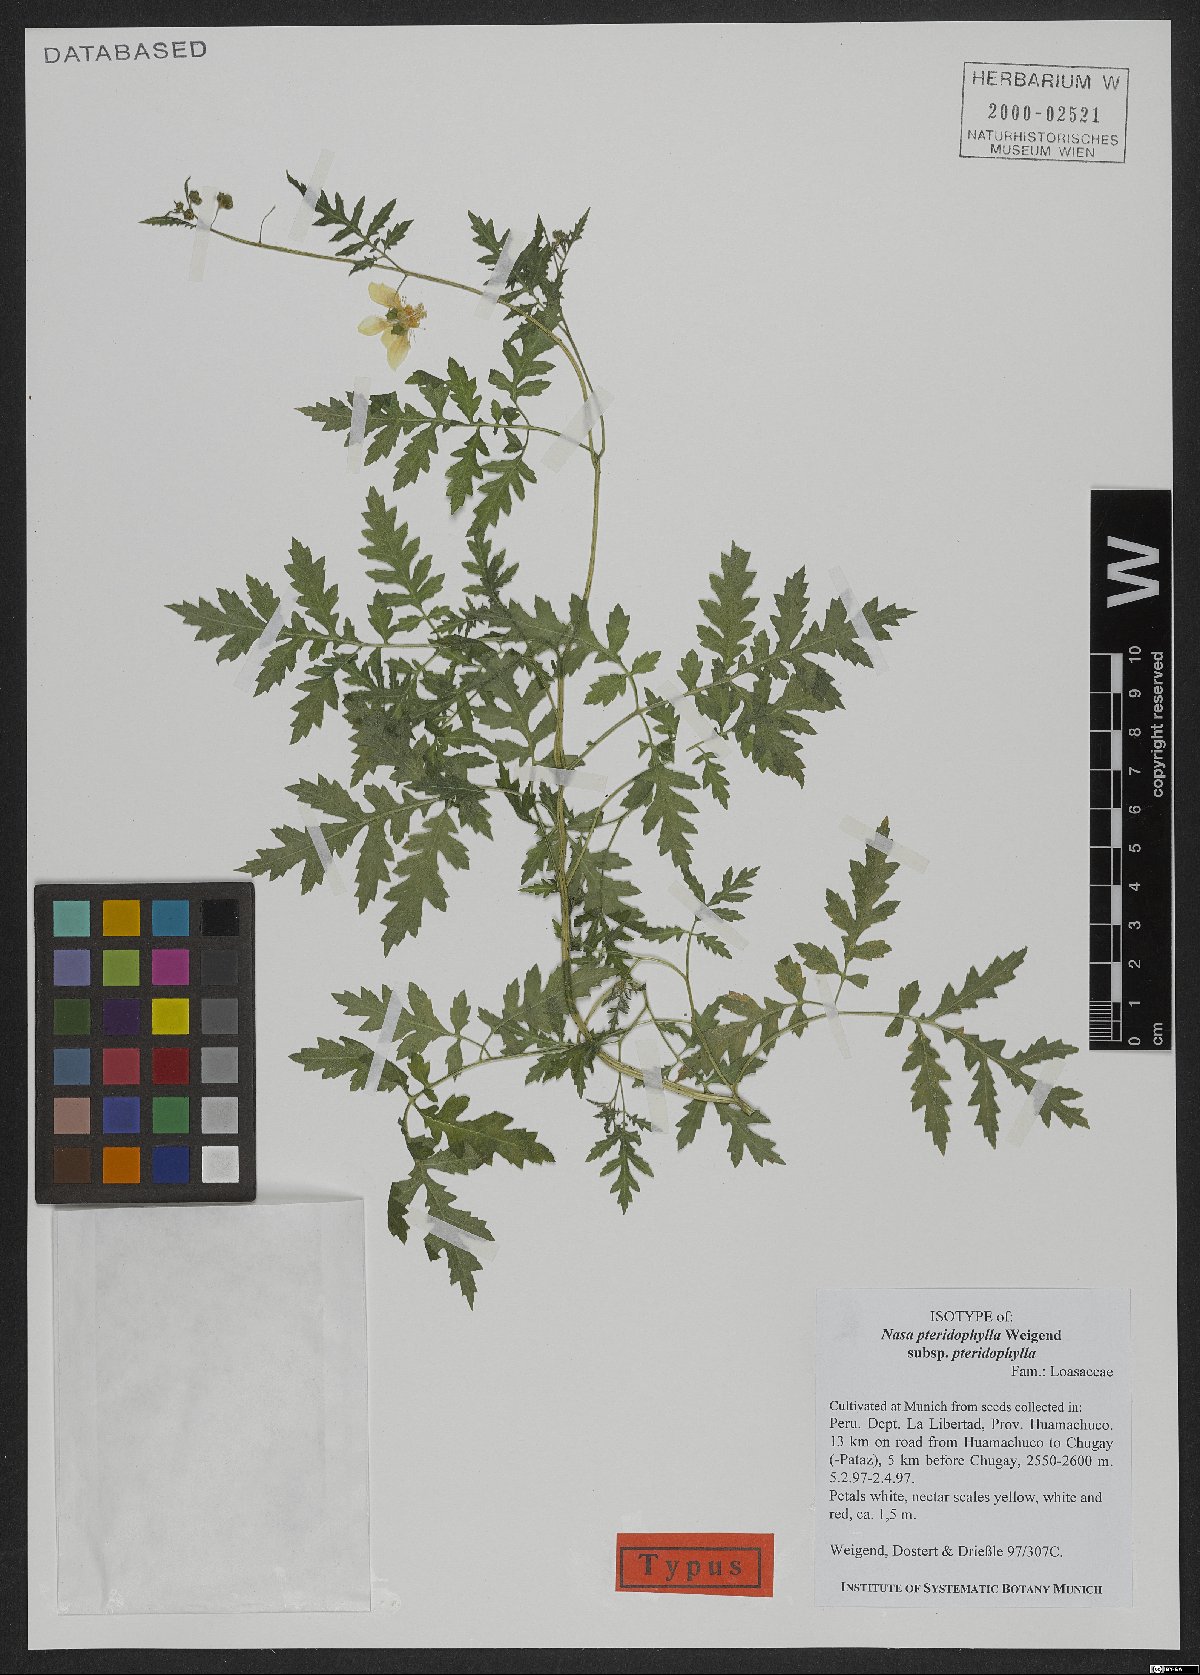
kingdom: Plantae
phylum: Tracheophyta
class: Magnoliopsida
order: Cornales
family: Loasaceae
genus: Nasa
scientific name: Nasa pteridophylla
